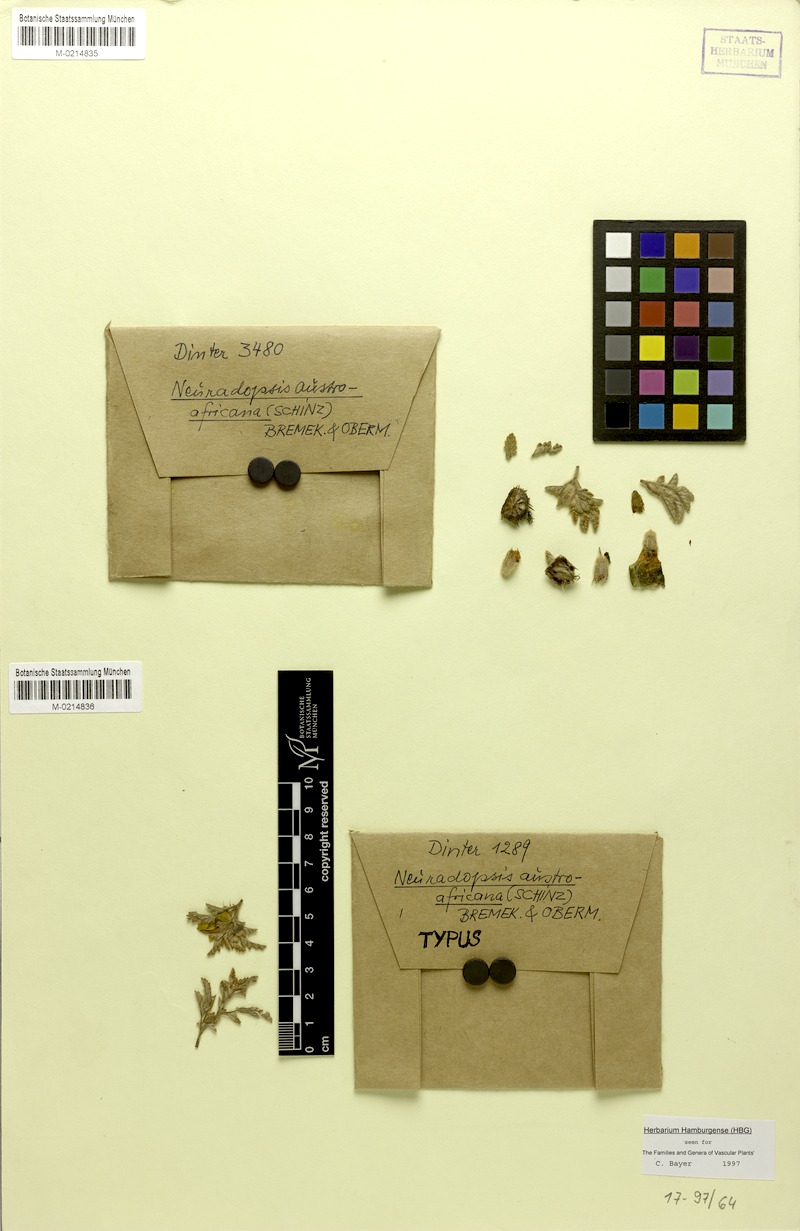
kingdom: Plantae
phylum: Tracheophyta
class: Magnoliopsida
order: Malvales
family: Neuradaceae
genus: Neuradopsis
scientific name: Neuradopsis austroafricana
